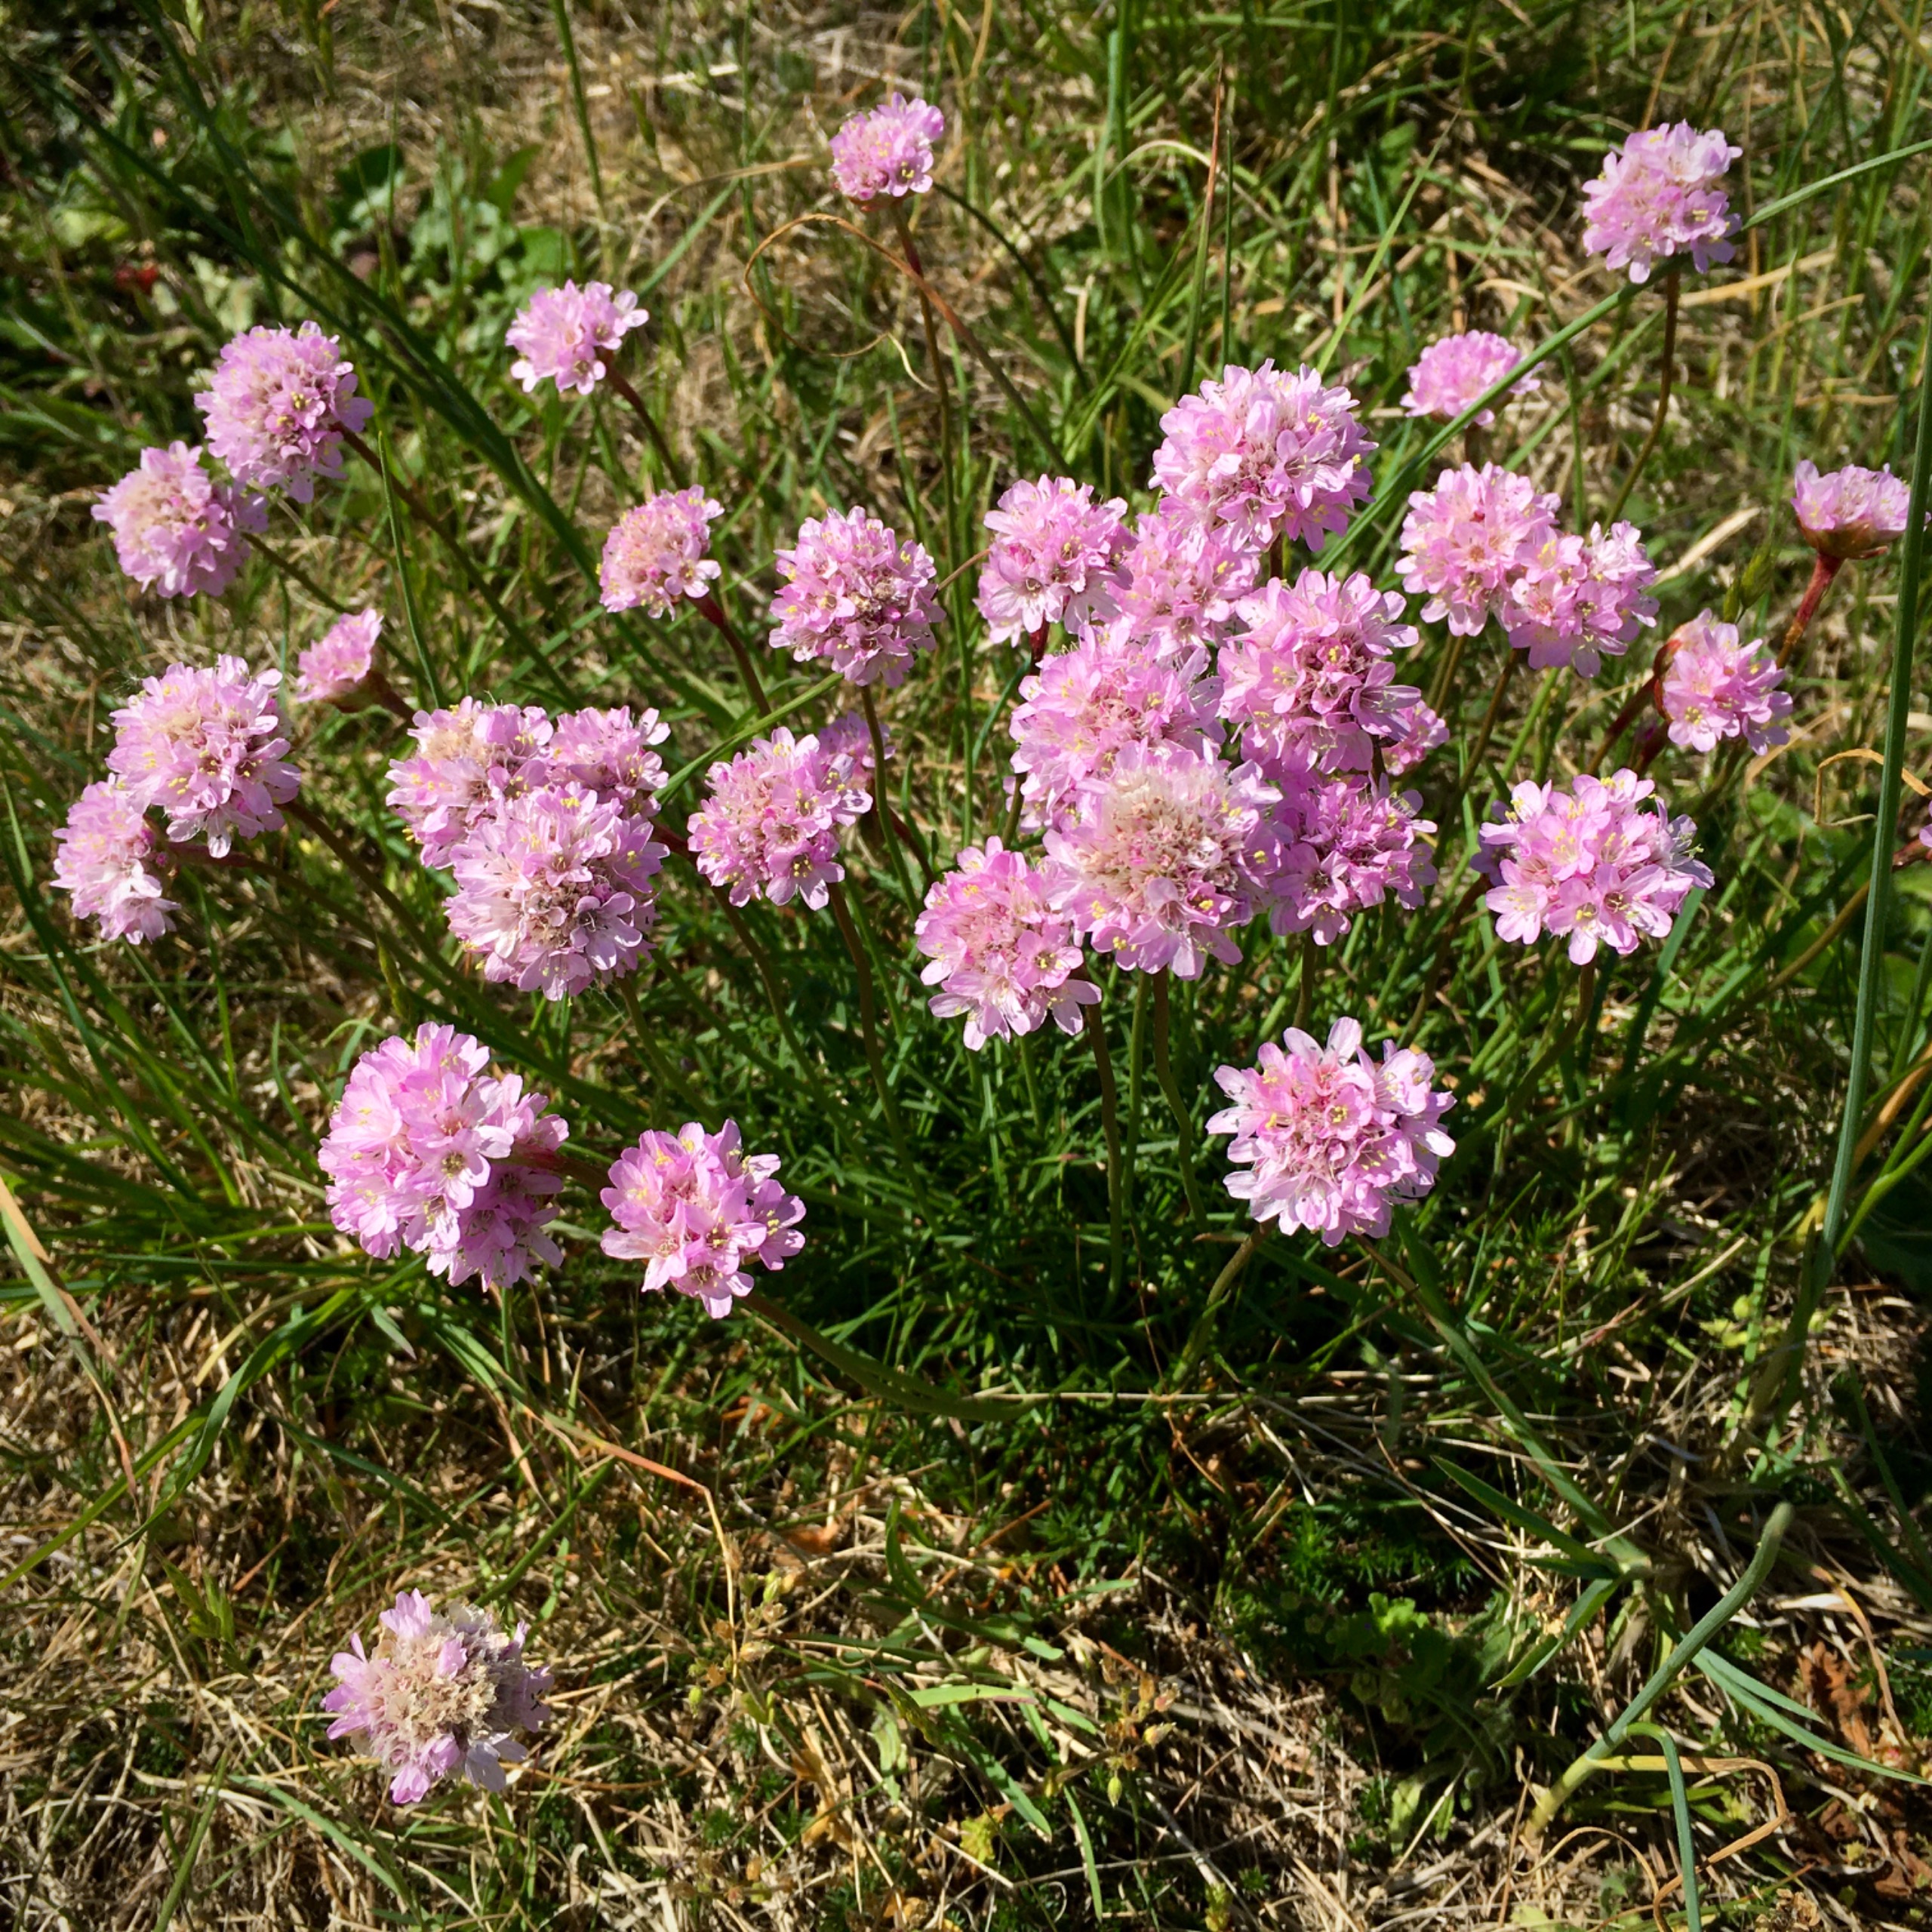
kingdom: Plantae
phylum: Tracheophyta
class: Magnoliopsida
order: Caryophyllales
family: Plumbaginaceae
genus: Armeria
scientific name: Armeria maritima
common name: Engelskgræs
